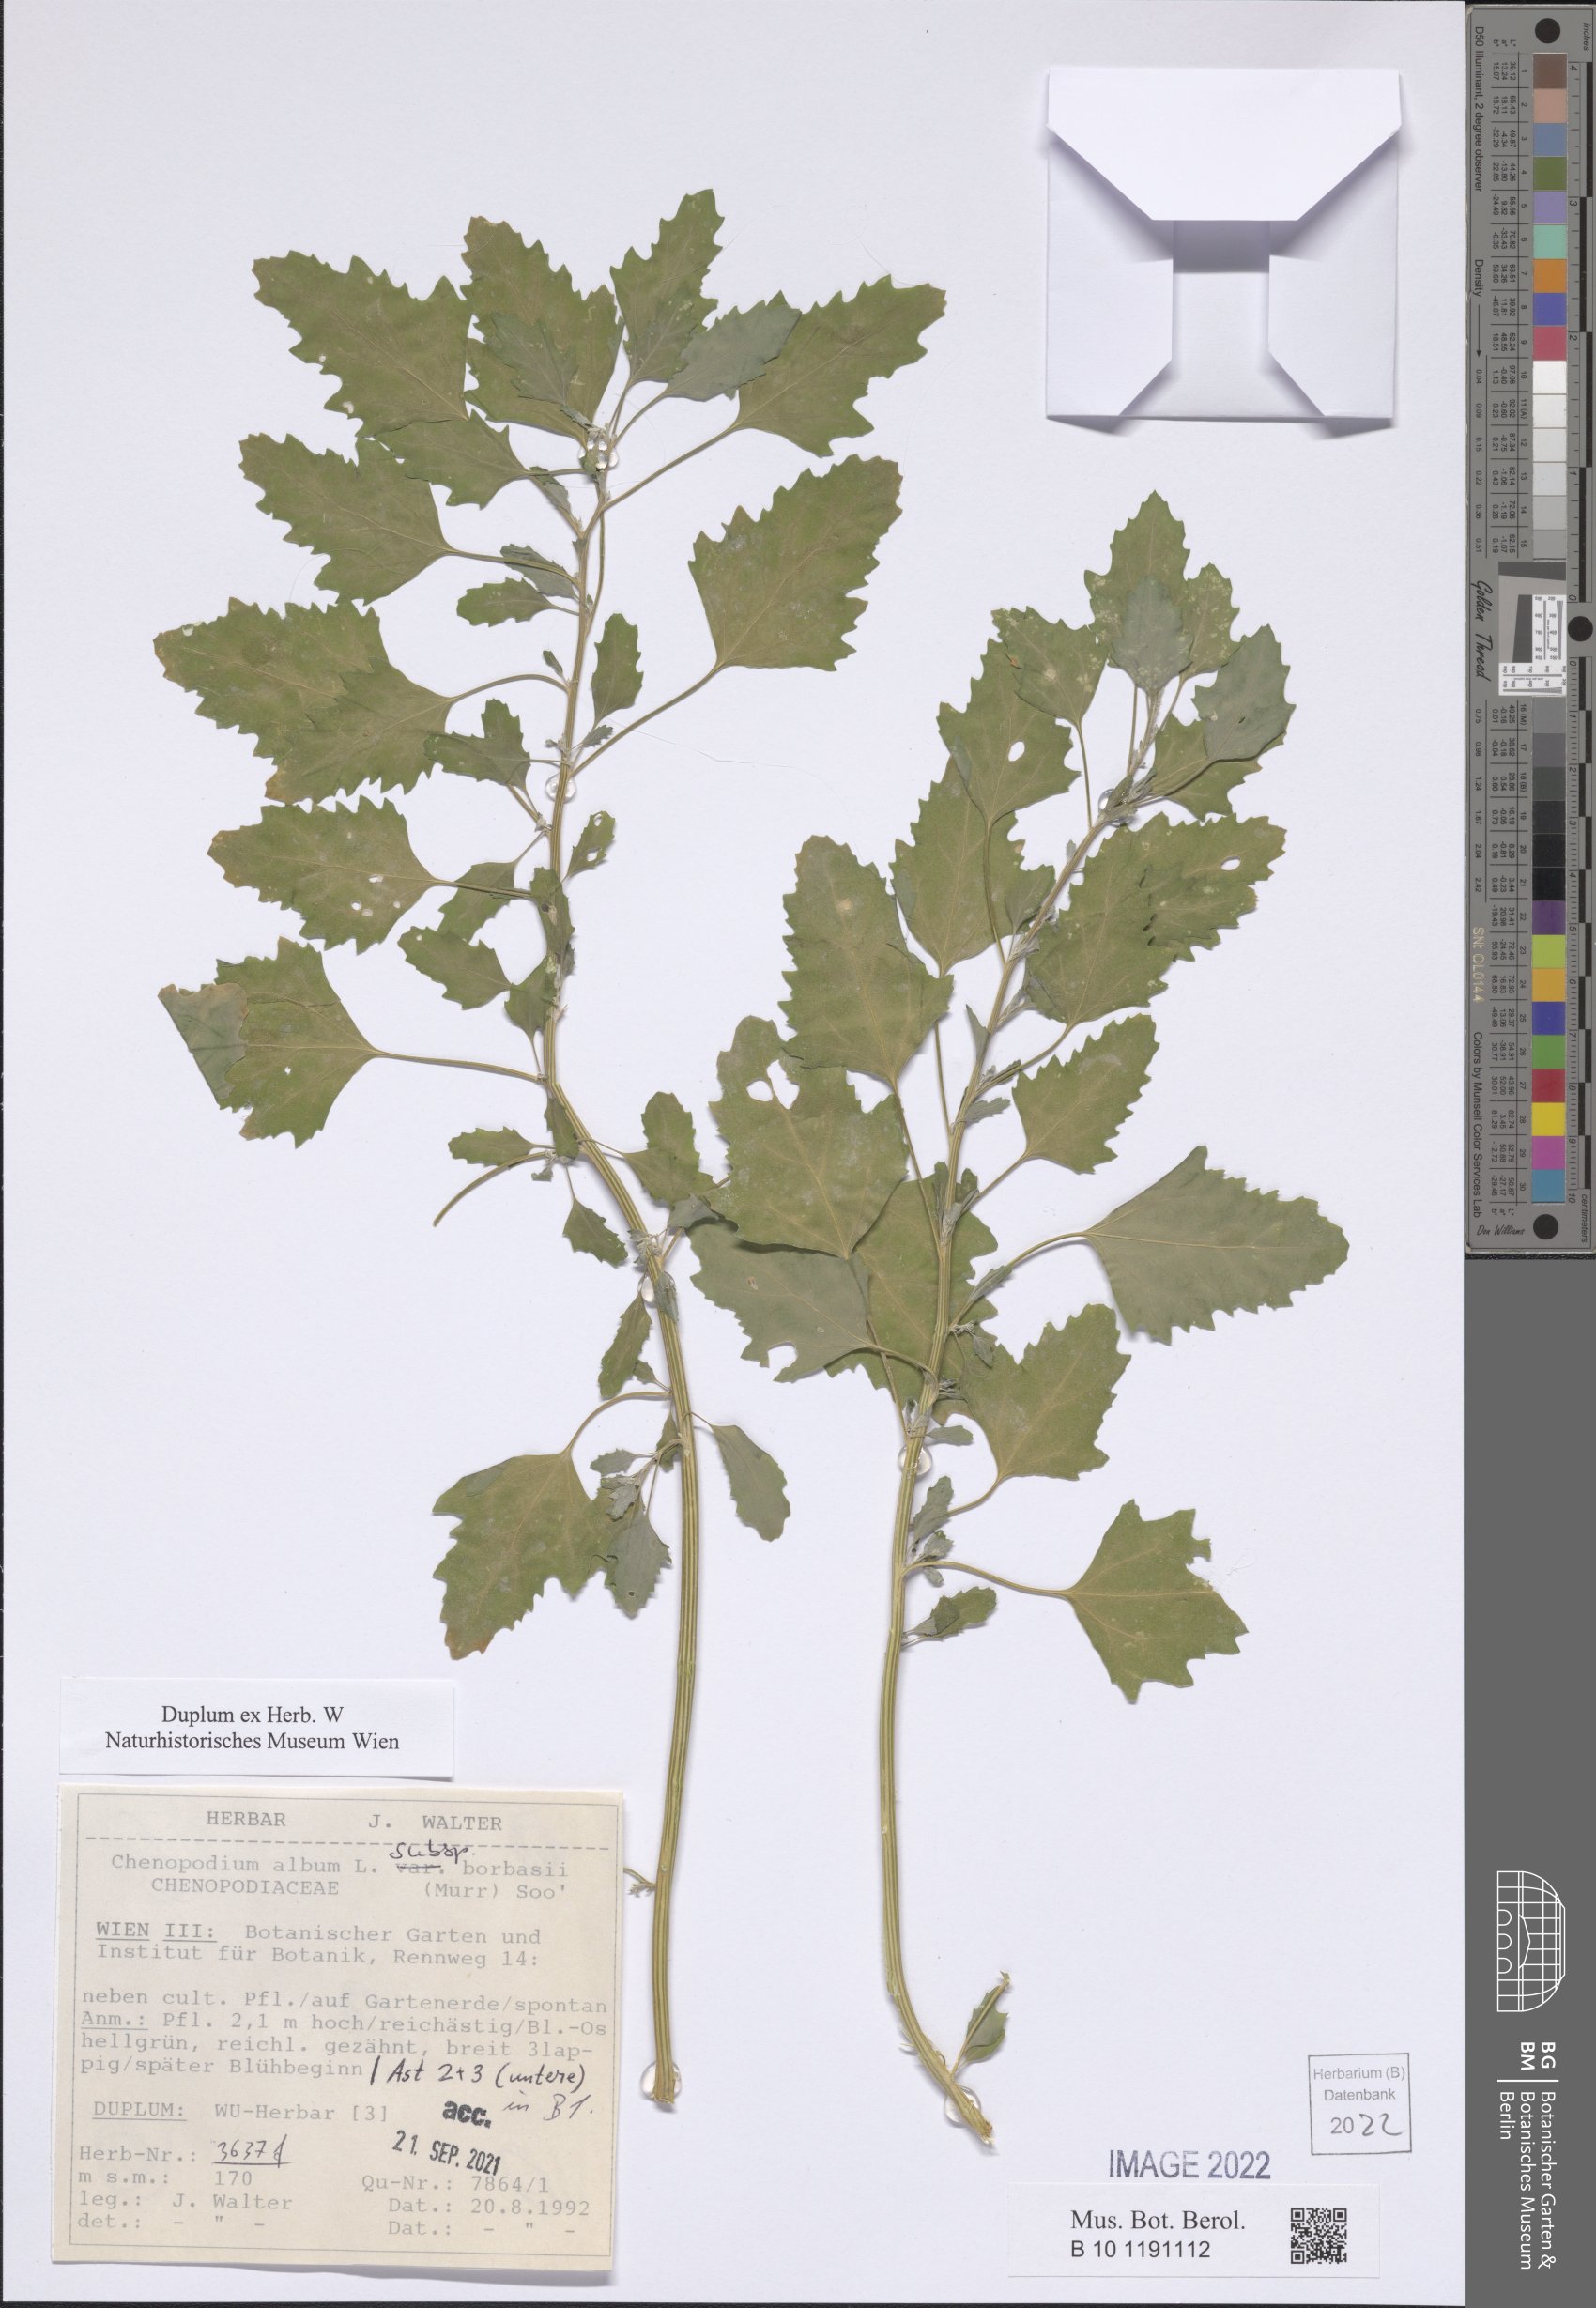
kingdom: Plantae
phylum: Tracheophyta
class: Magnoliopsida
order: Caryophyllales
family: Amaranthaceae
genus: Chenopodium
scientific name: Chenopodium borbasii
